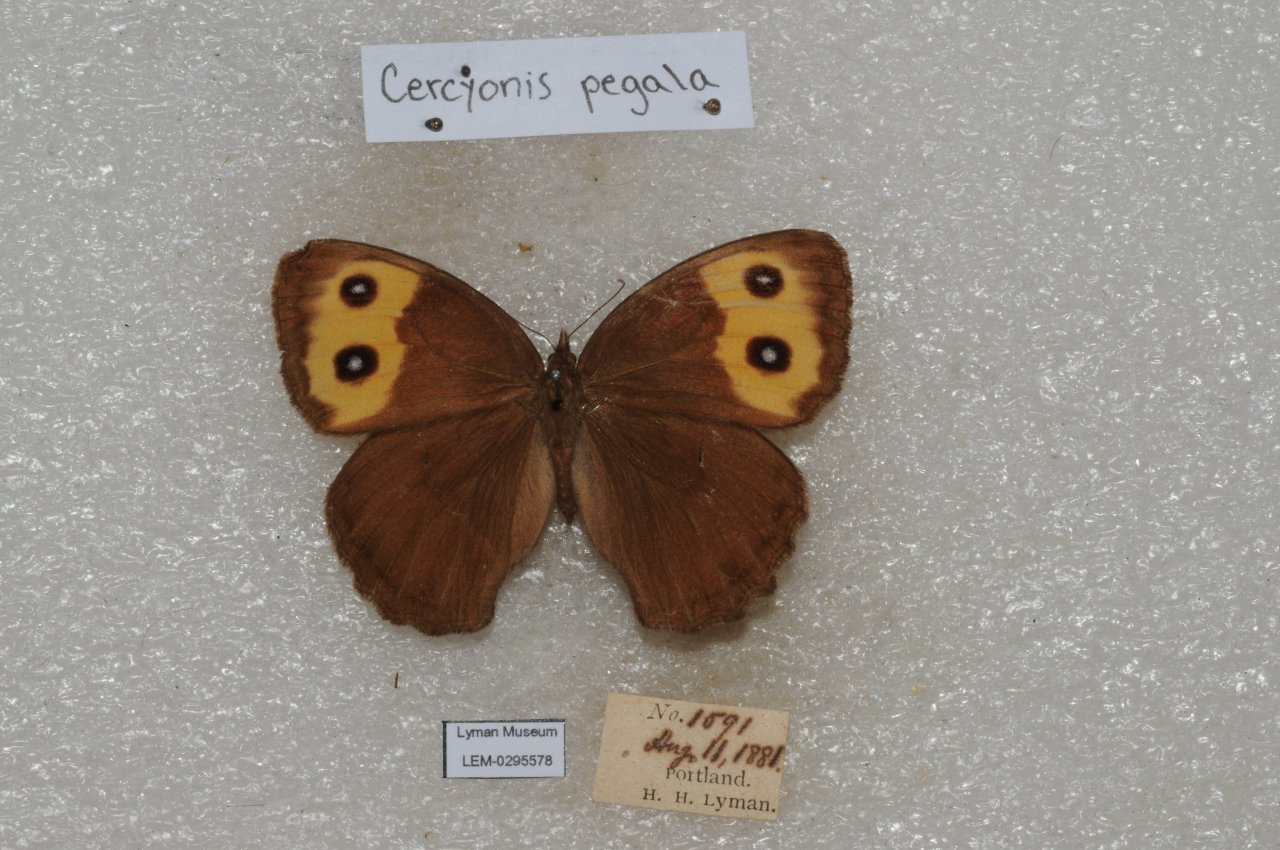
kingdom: Animalia
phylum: Arthropoda
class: Insecta
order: Lepidoptera
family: Nymphalidae
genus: Cercyonis
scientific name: Cercyonis pegala
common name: Common Wood-Nymph
